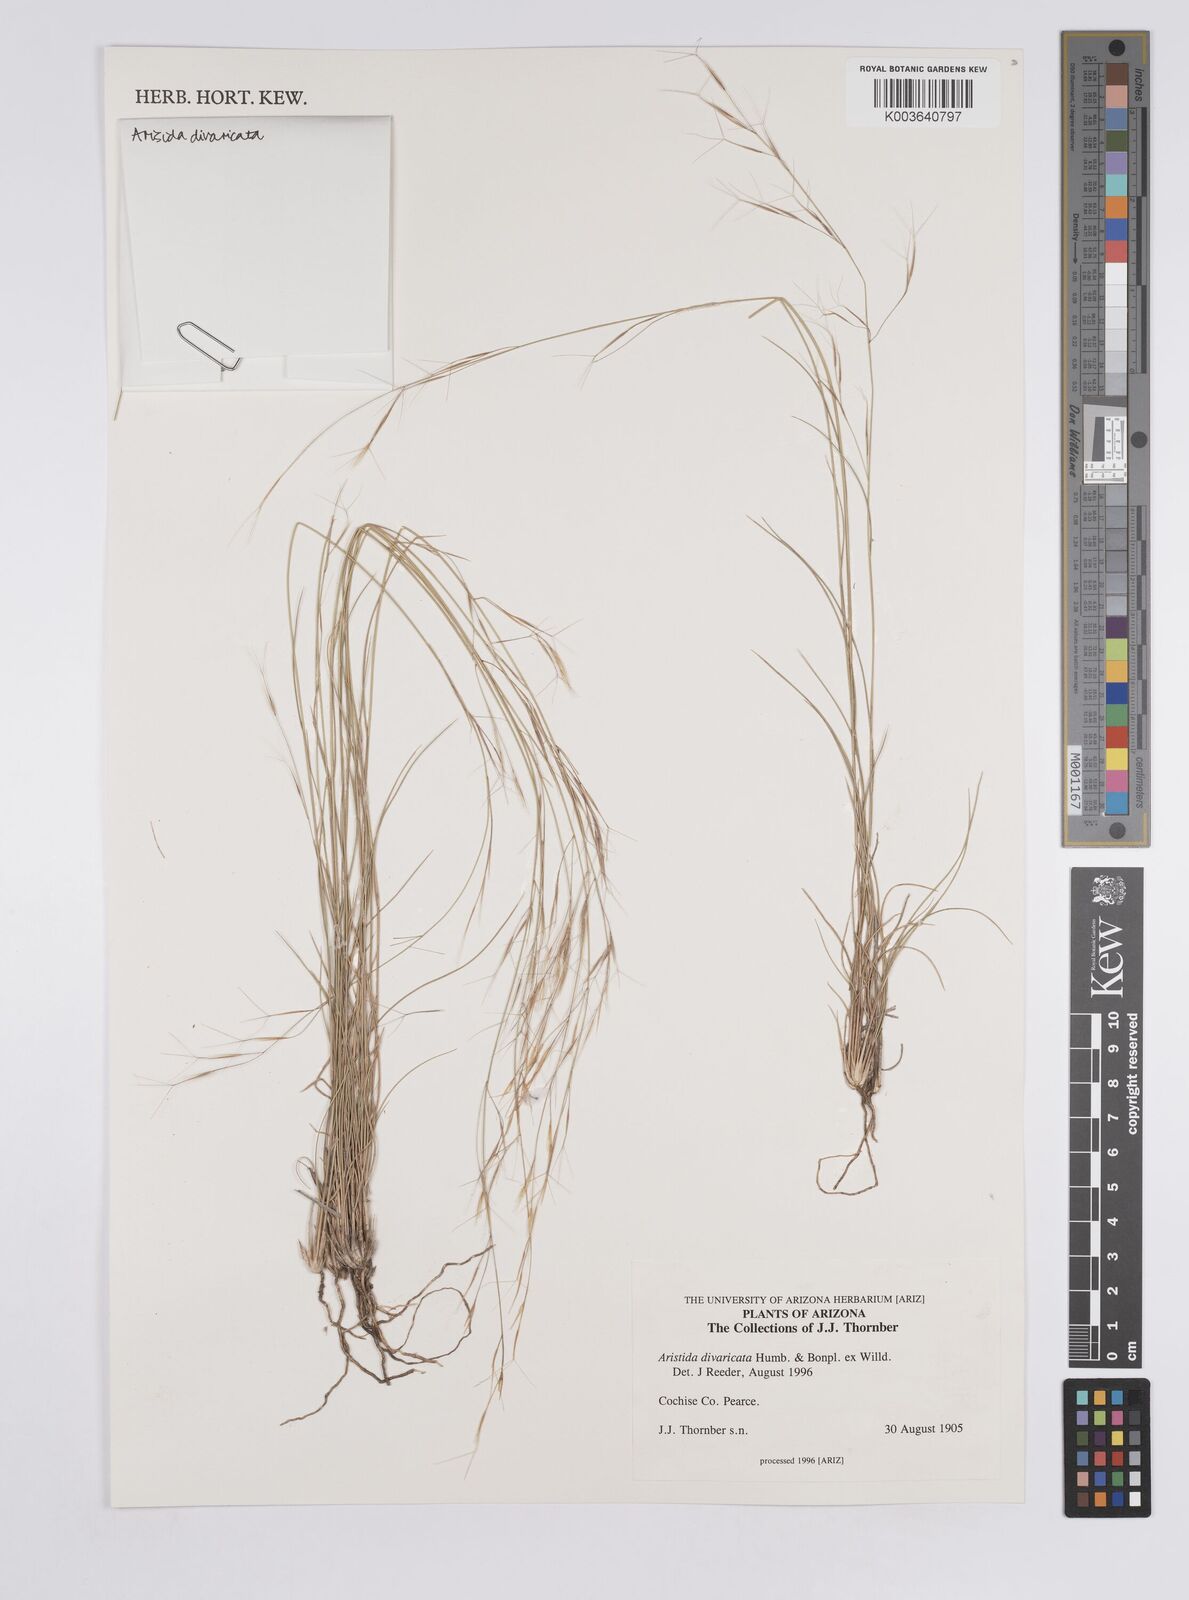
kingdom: Plantae
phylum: Tracheophyta
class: Liliopsida
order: Poales
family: Poaceae
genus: Aristida
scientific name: Aristida laxa
